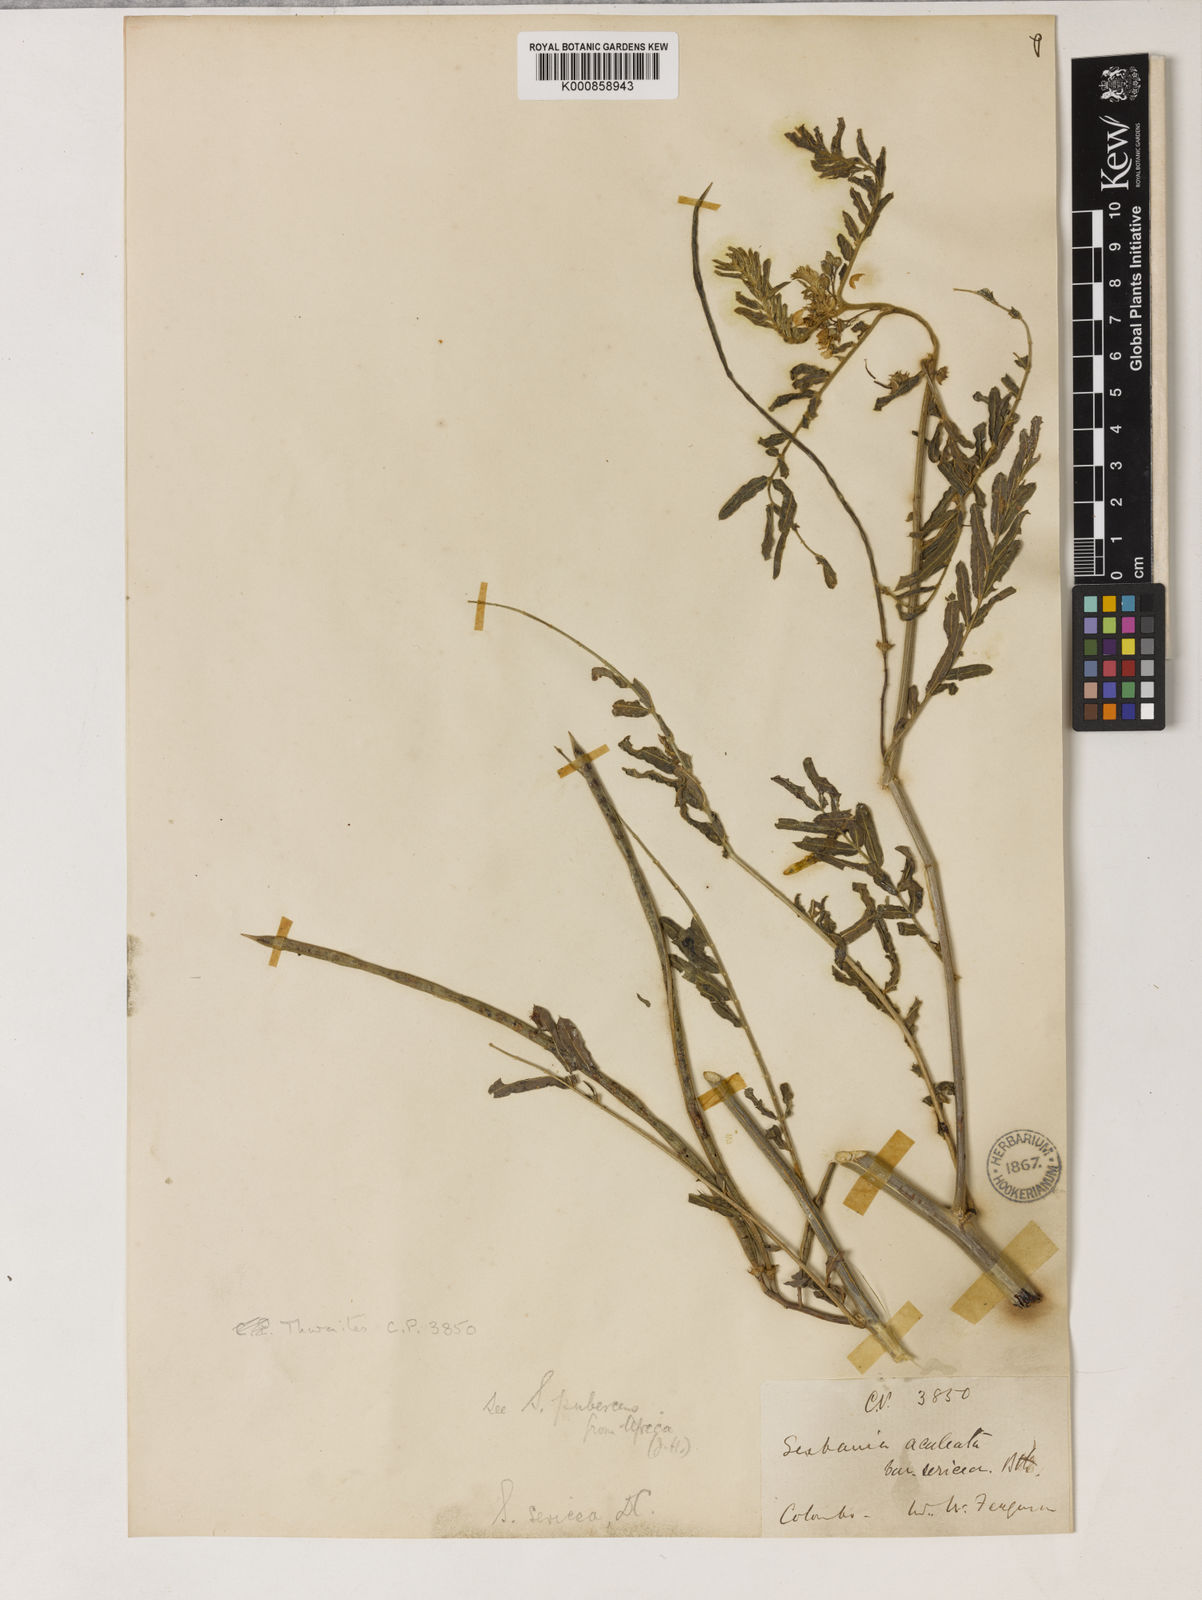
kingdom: Plantae
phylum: Tracheophyta
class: Magnoliopsida
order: Fabales
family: Fabaceae
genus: Sesbania
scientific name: Sesbania
